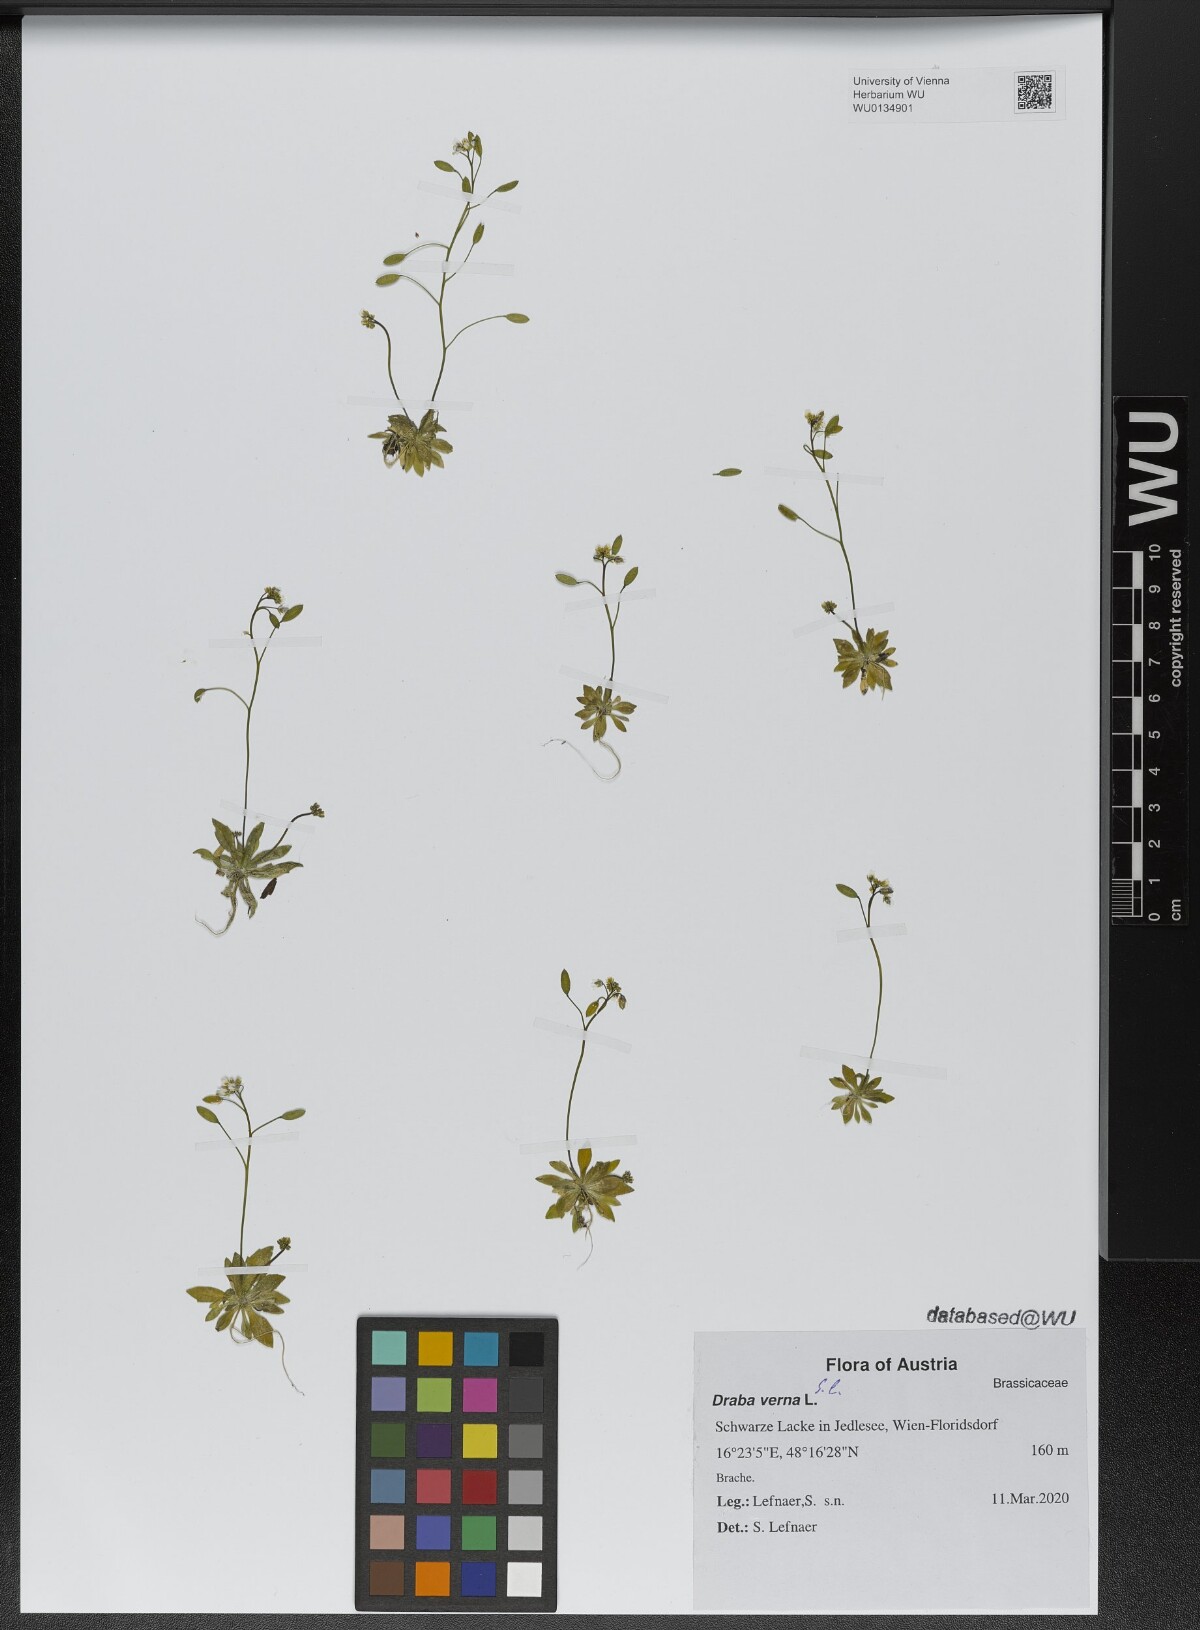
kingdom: Plantae
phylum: Tracheophyta
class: Magnoliopsida
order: Brassicales
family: Brassicaceae
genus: Draba
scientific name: Draba verna
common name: Spring draba
